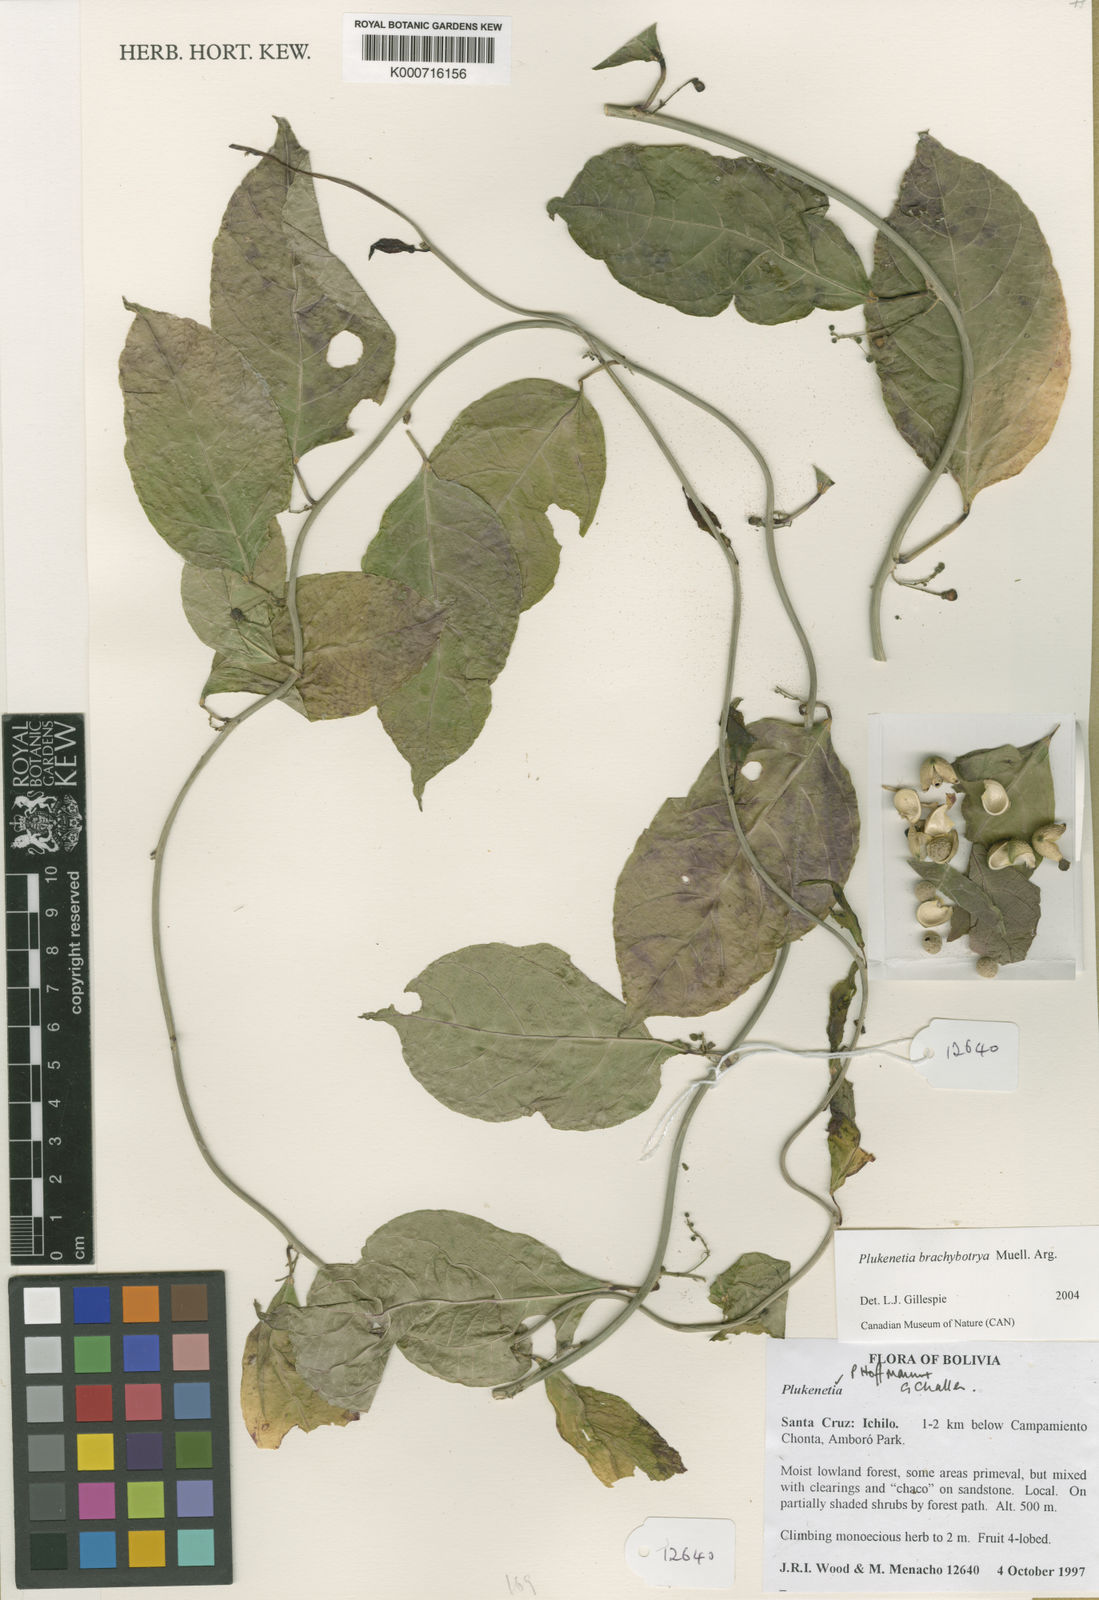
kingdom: Plantae
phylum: Tracheophyta
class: Magnoliopsida
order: Malpighiales
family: Euphorbiaceae
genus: Plukenetia
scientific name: Plukenetia
